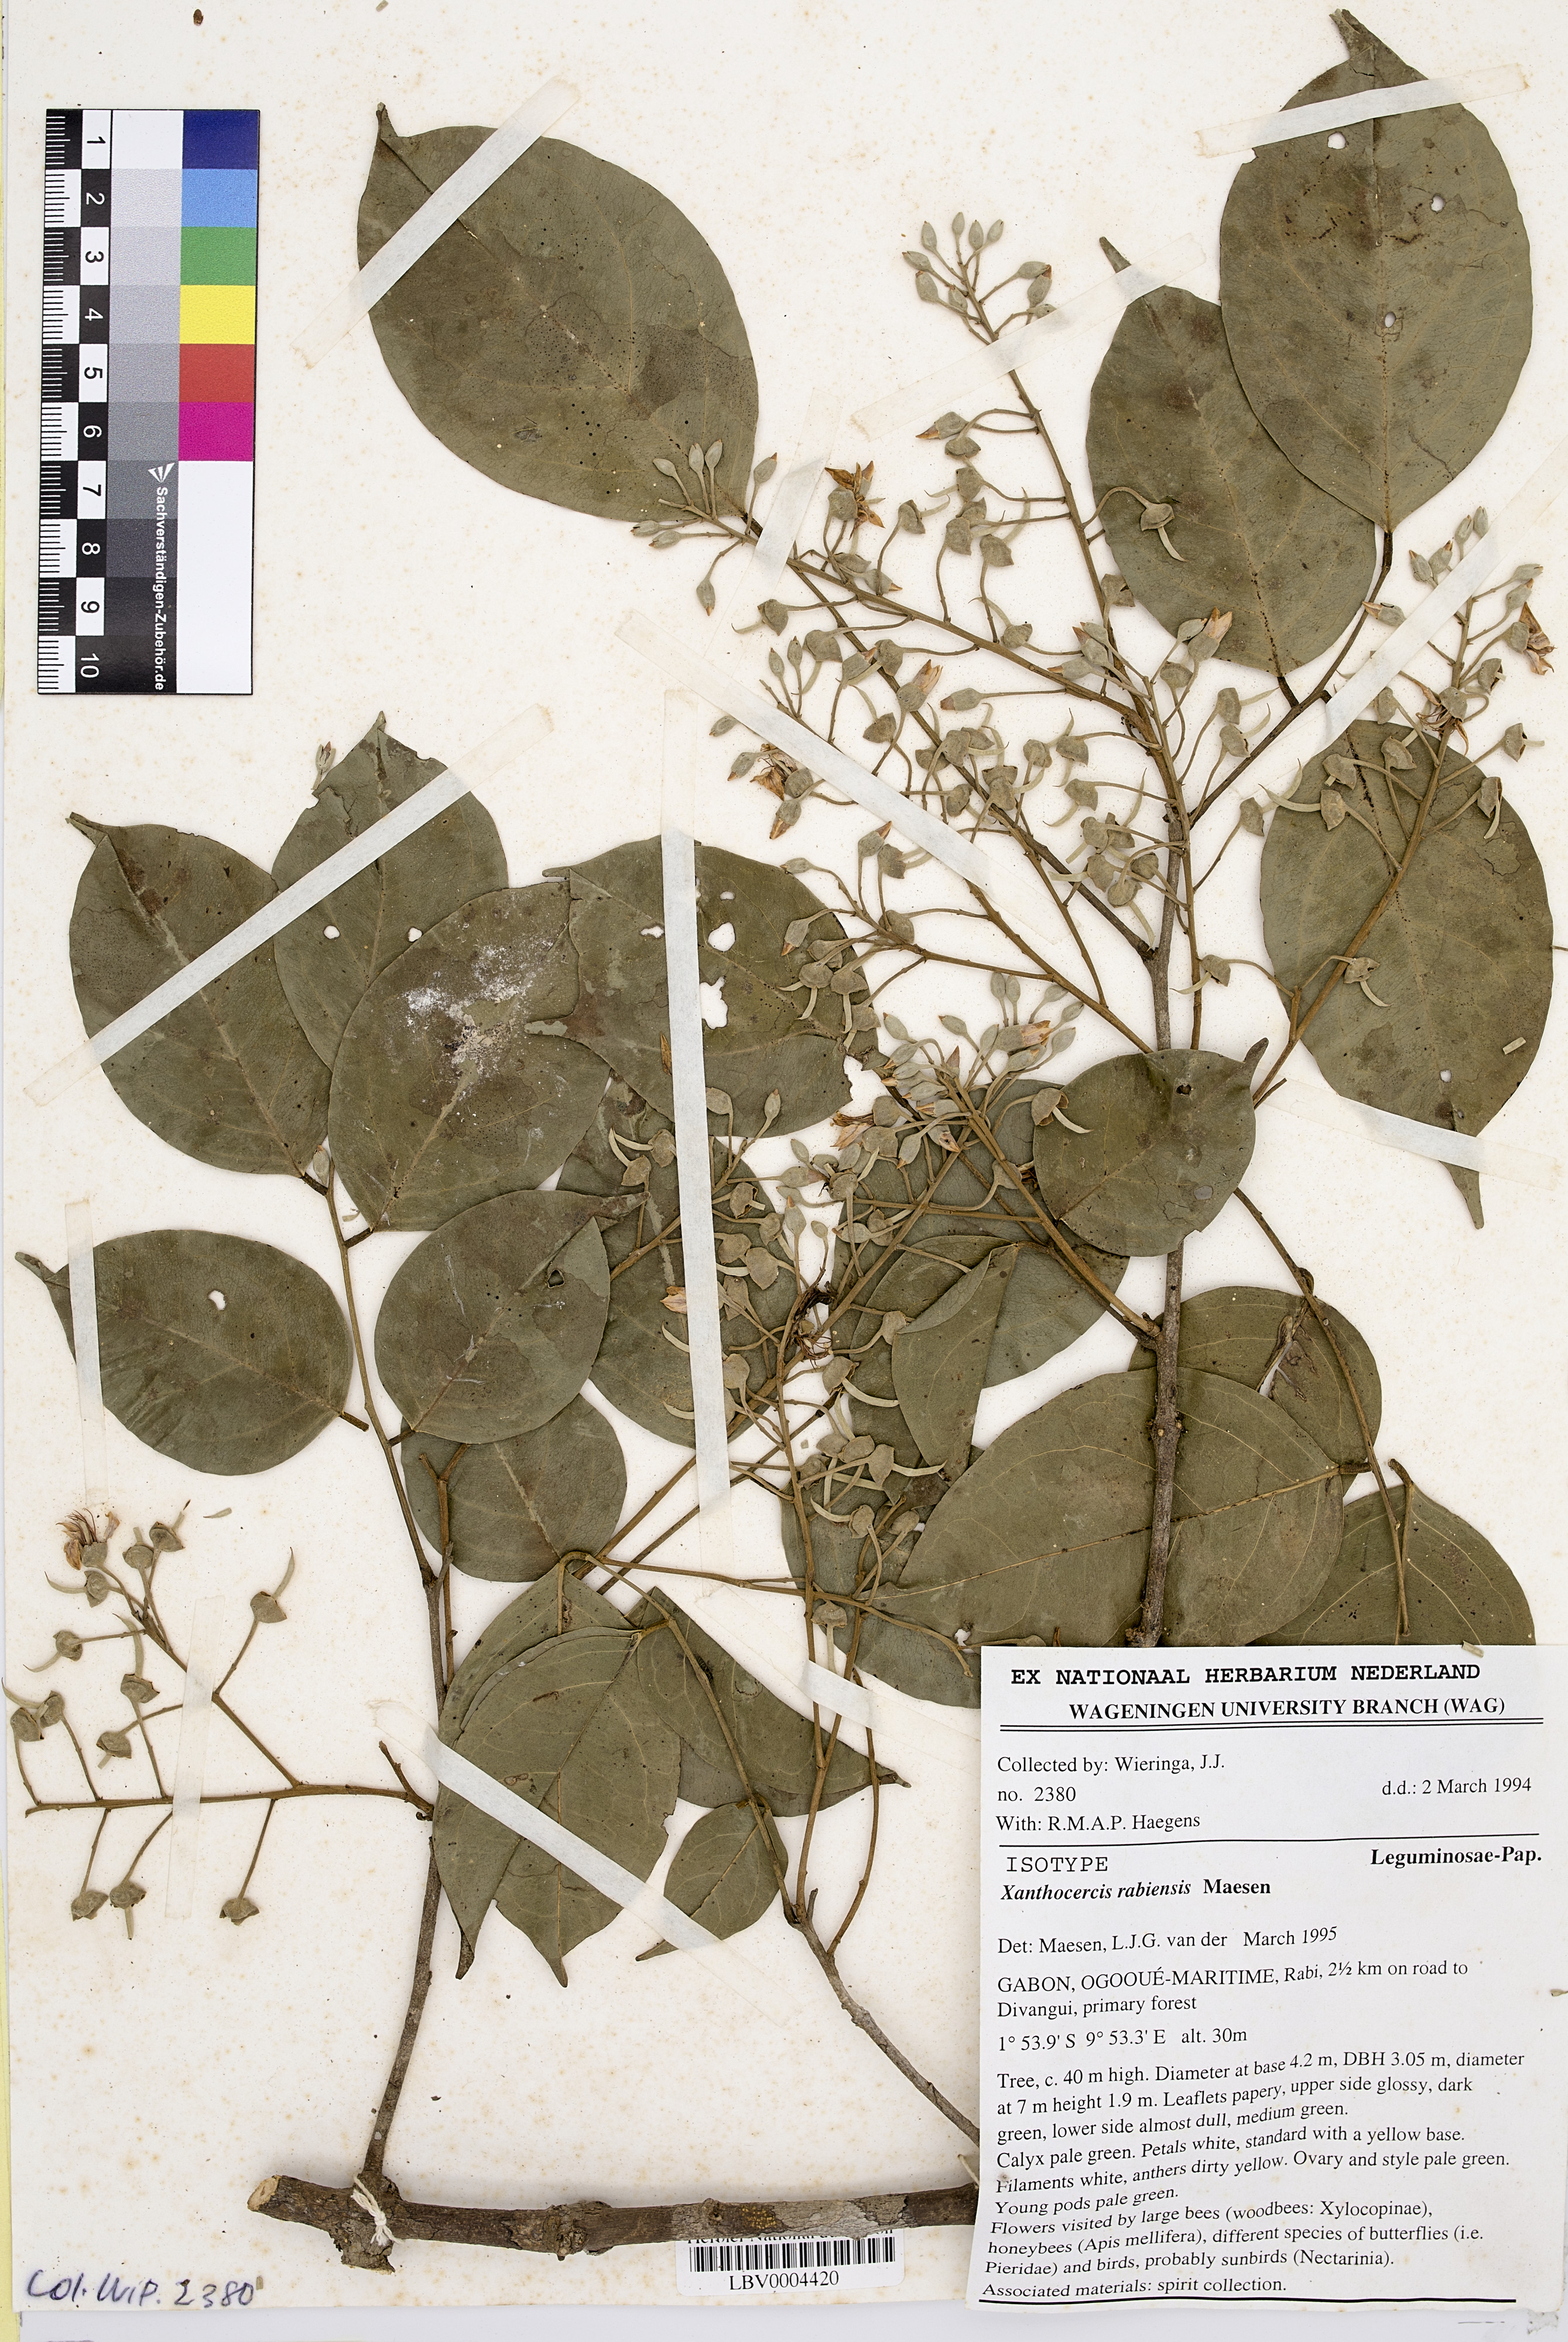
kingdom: Plantae
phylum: Tracheophyta
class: Magnoliopsida
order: Fabales
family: Fabaceae
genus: Xanthocercis
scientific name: Xanthocercis rabiensis
